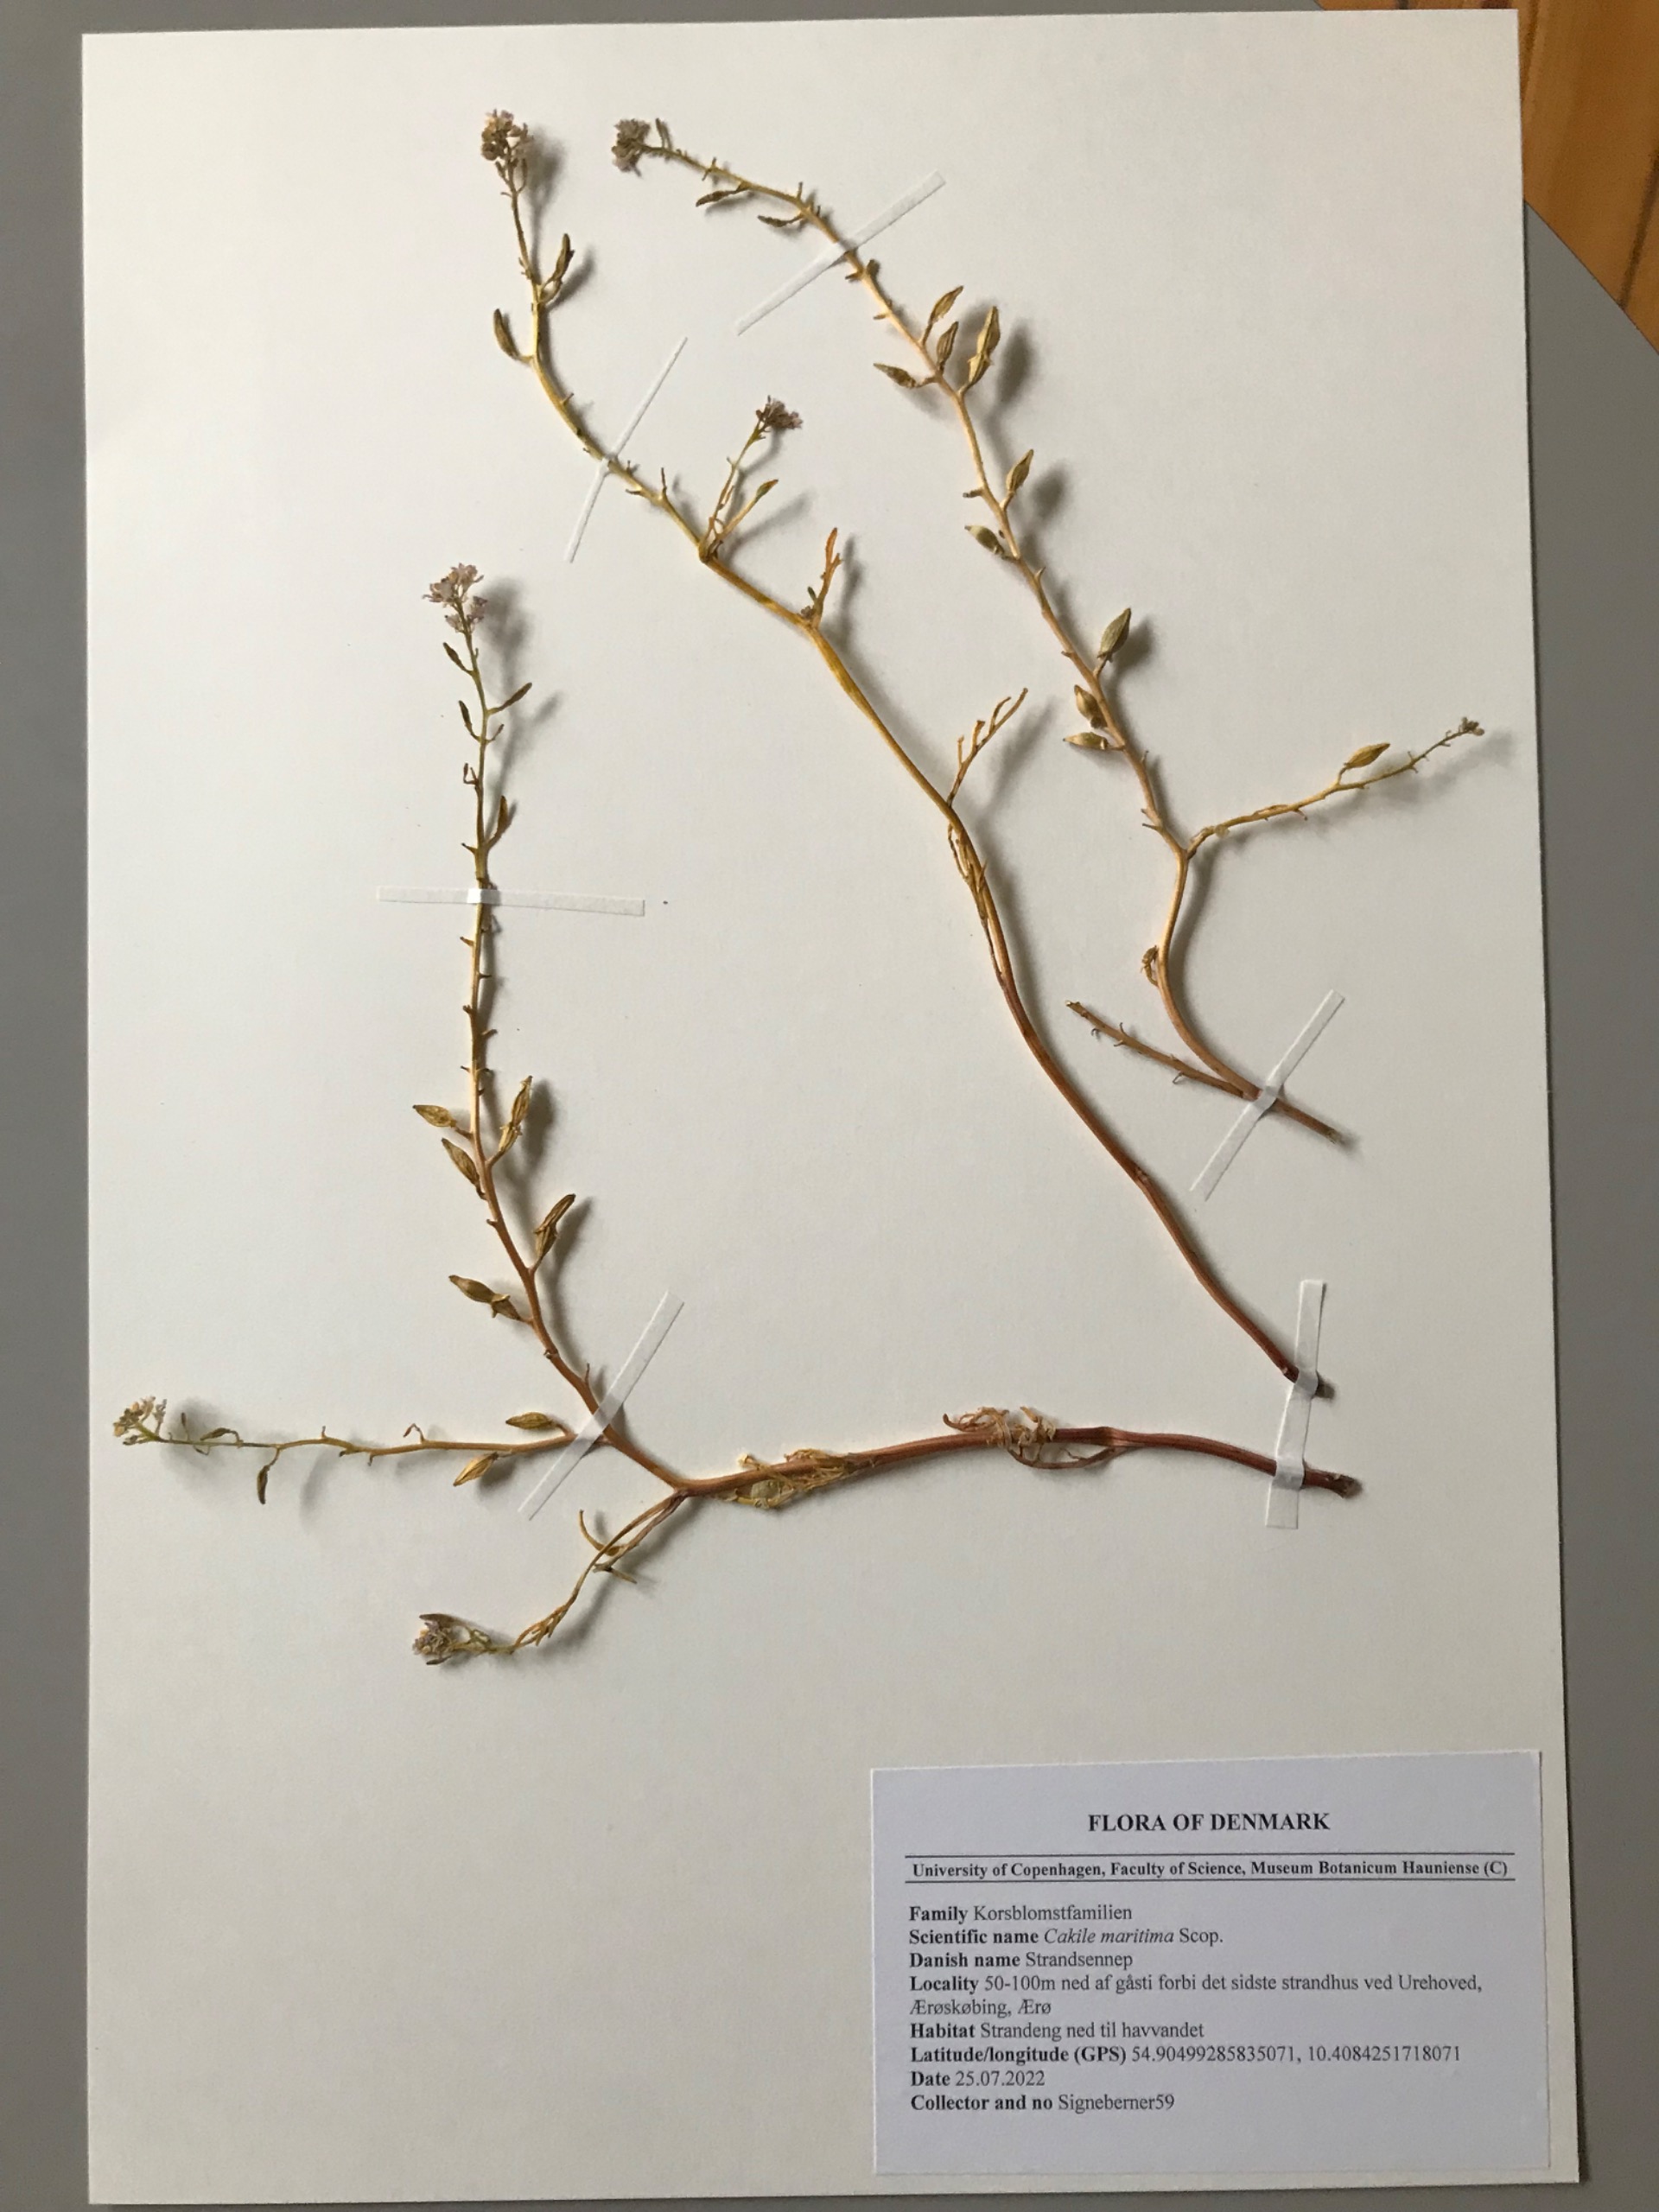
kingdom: Plantae
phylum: Tracheophyta
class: Magnoliopsida
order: Brassicales
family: Brassicaceae
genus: Cakile
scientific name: Cakile maritima
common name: Strandsennep
